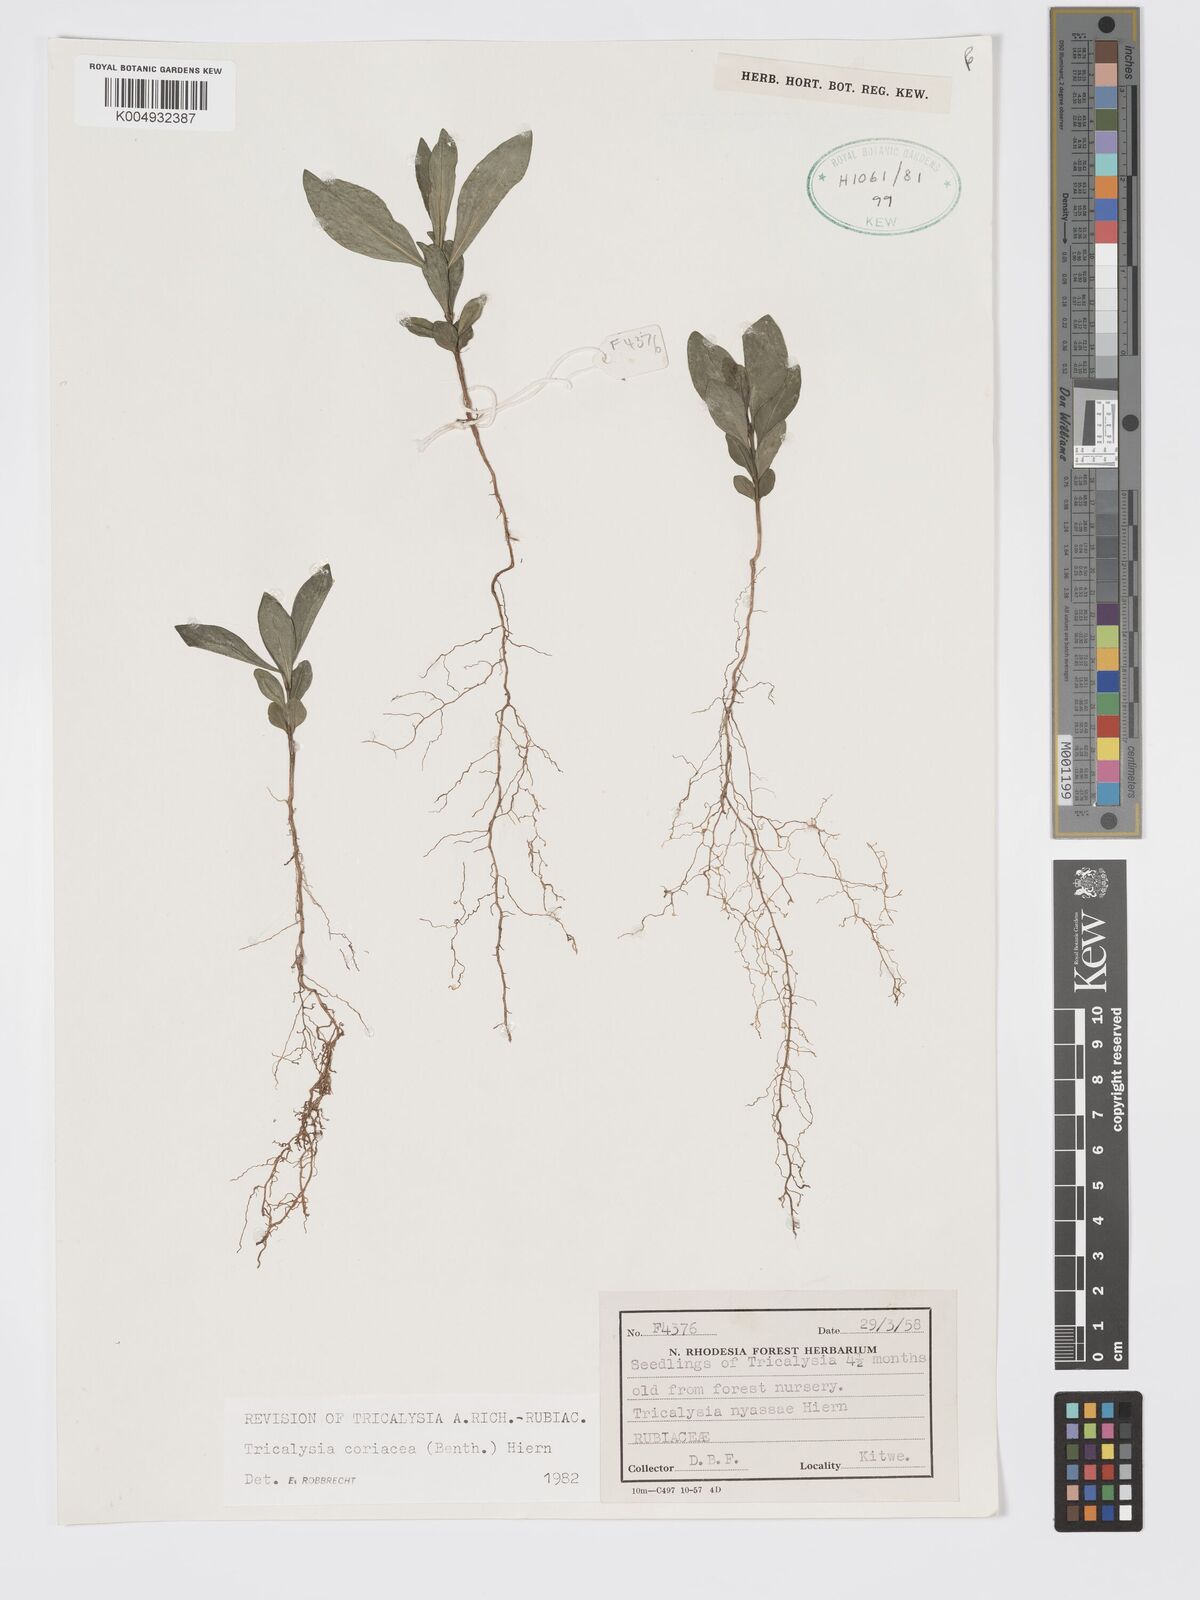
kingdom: Plantae
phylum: Tracheophyta
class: Magnoliopsida
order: Gentianales
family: Rubiaceae
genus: Tricalysia
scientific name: Tricalysia coriacea
